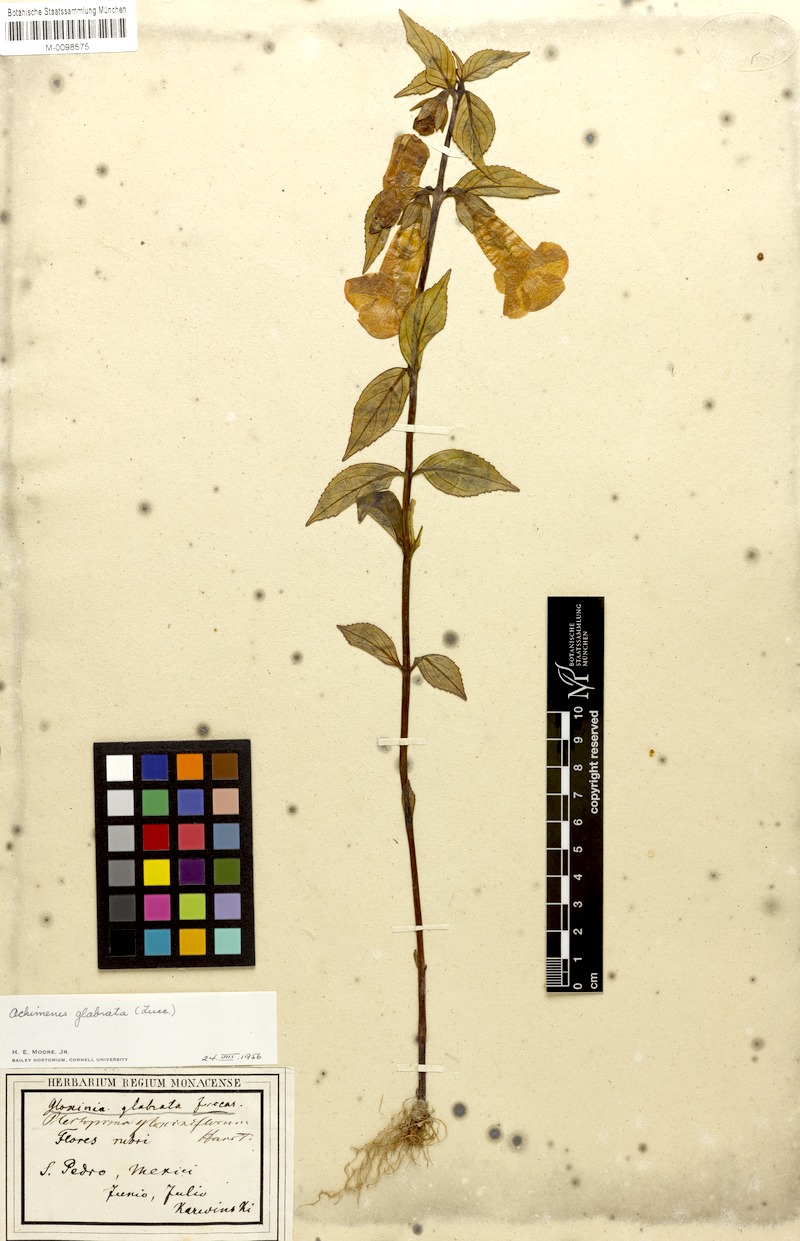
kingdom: Plantae
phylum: Tracheophyta
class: Magnoliopsida
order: Lamiales
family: Gesneriaceae
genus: Achimenes
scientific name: Achimenes glabrata
